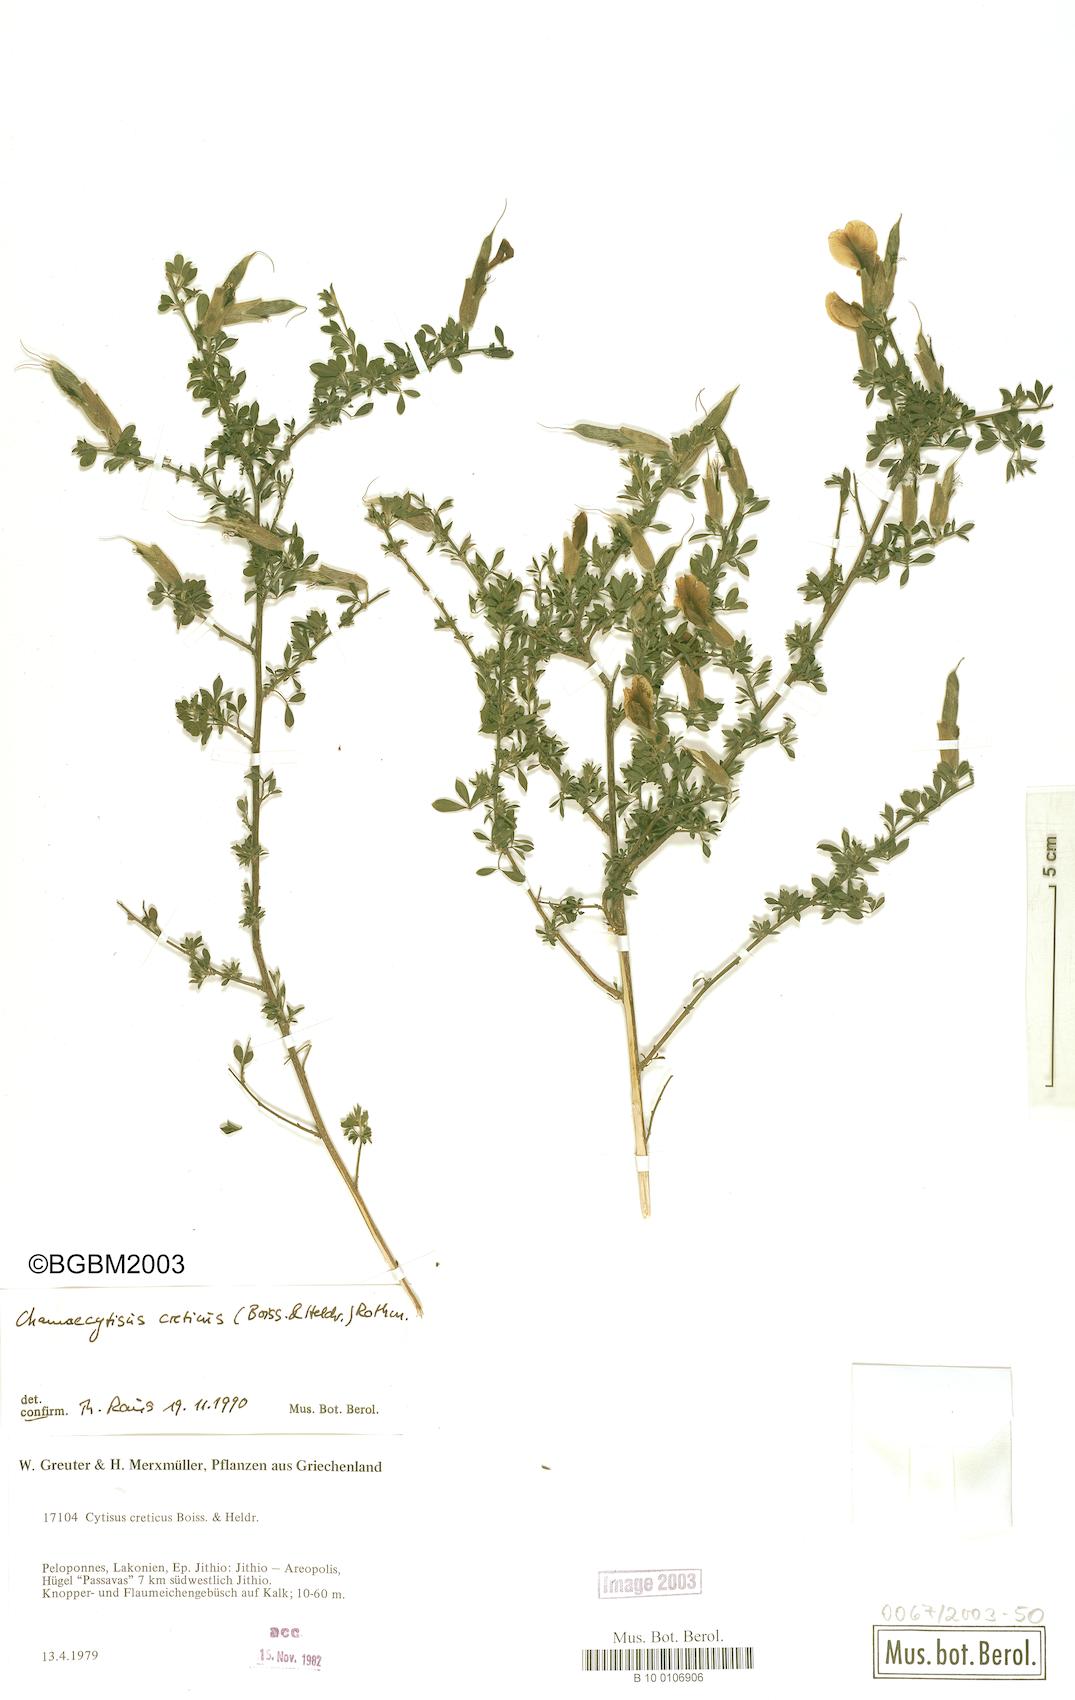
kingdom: Plantae
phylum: Tracheophyta
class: Magnoliopsida
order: Fabales
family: Fabaceae
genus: Chamaecytisus
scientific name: Chamaecytisus spinescens
